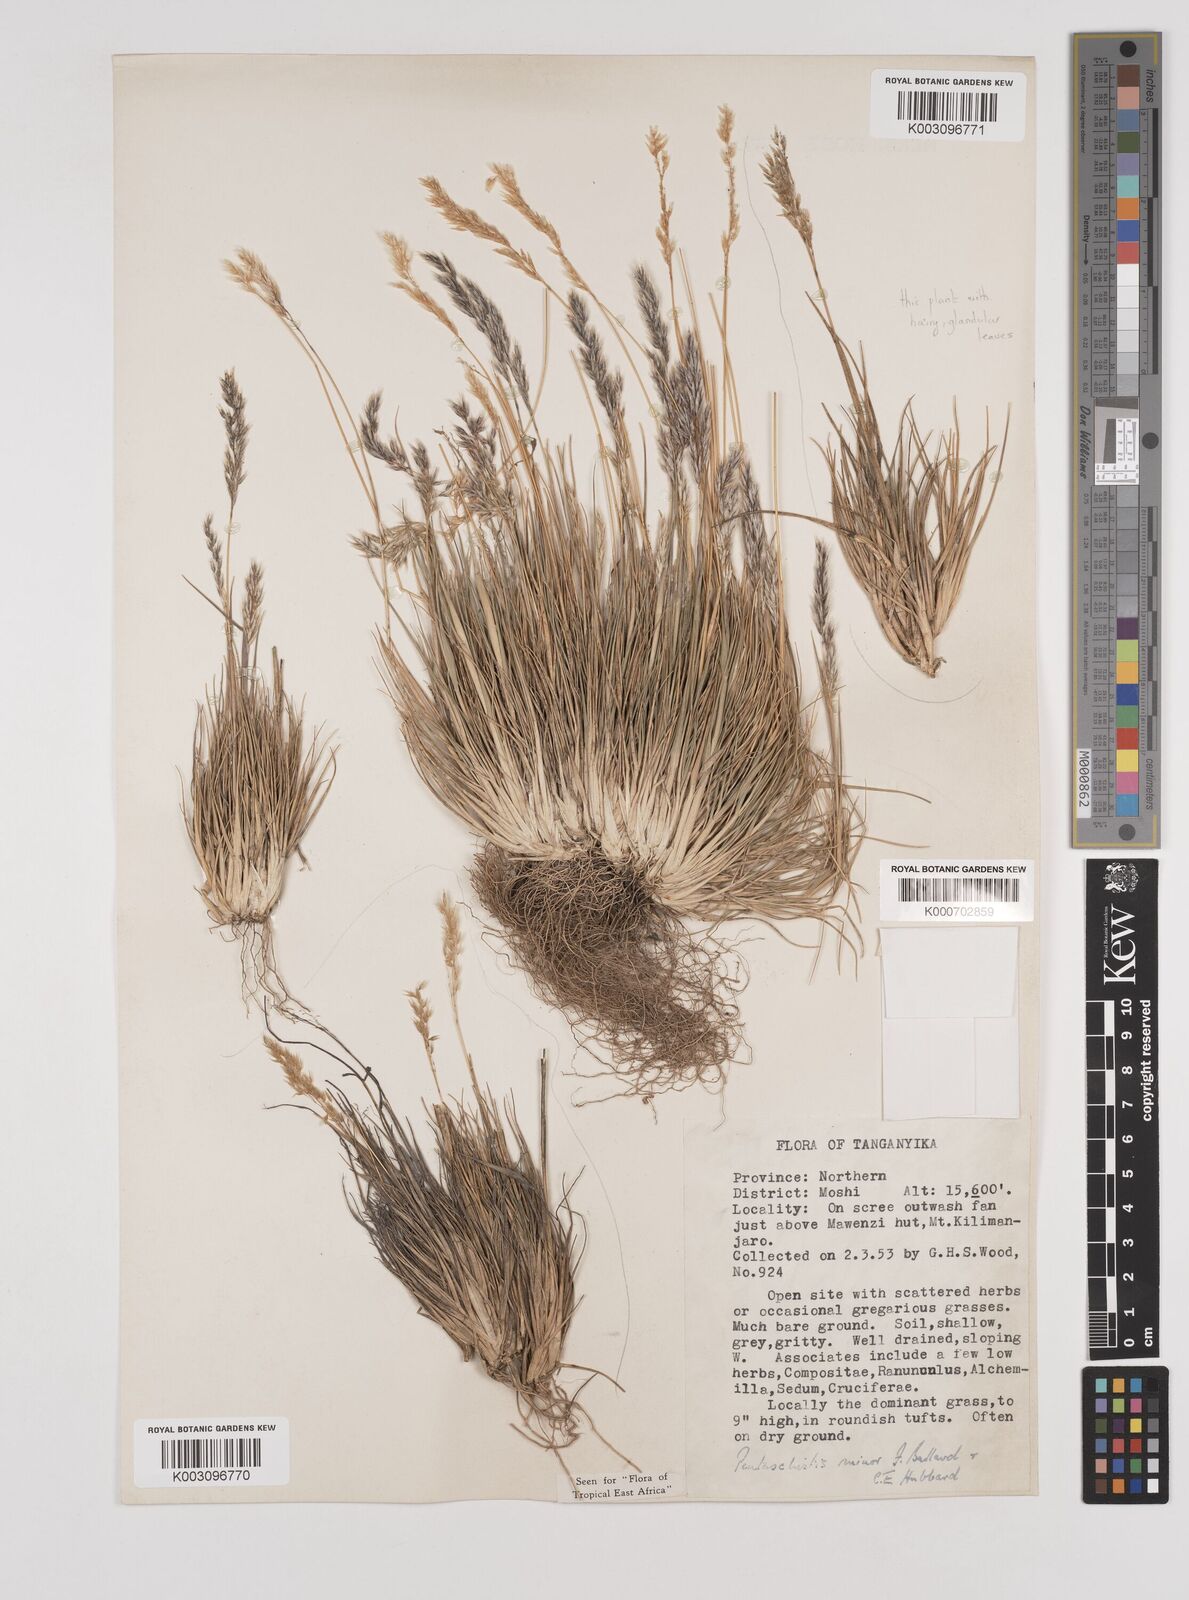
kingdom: Plantae
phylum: Tracheophyta
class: Liliopsida
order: Poales
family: Poaceae
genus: Pentameris
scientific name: Pentameris minor
